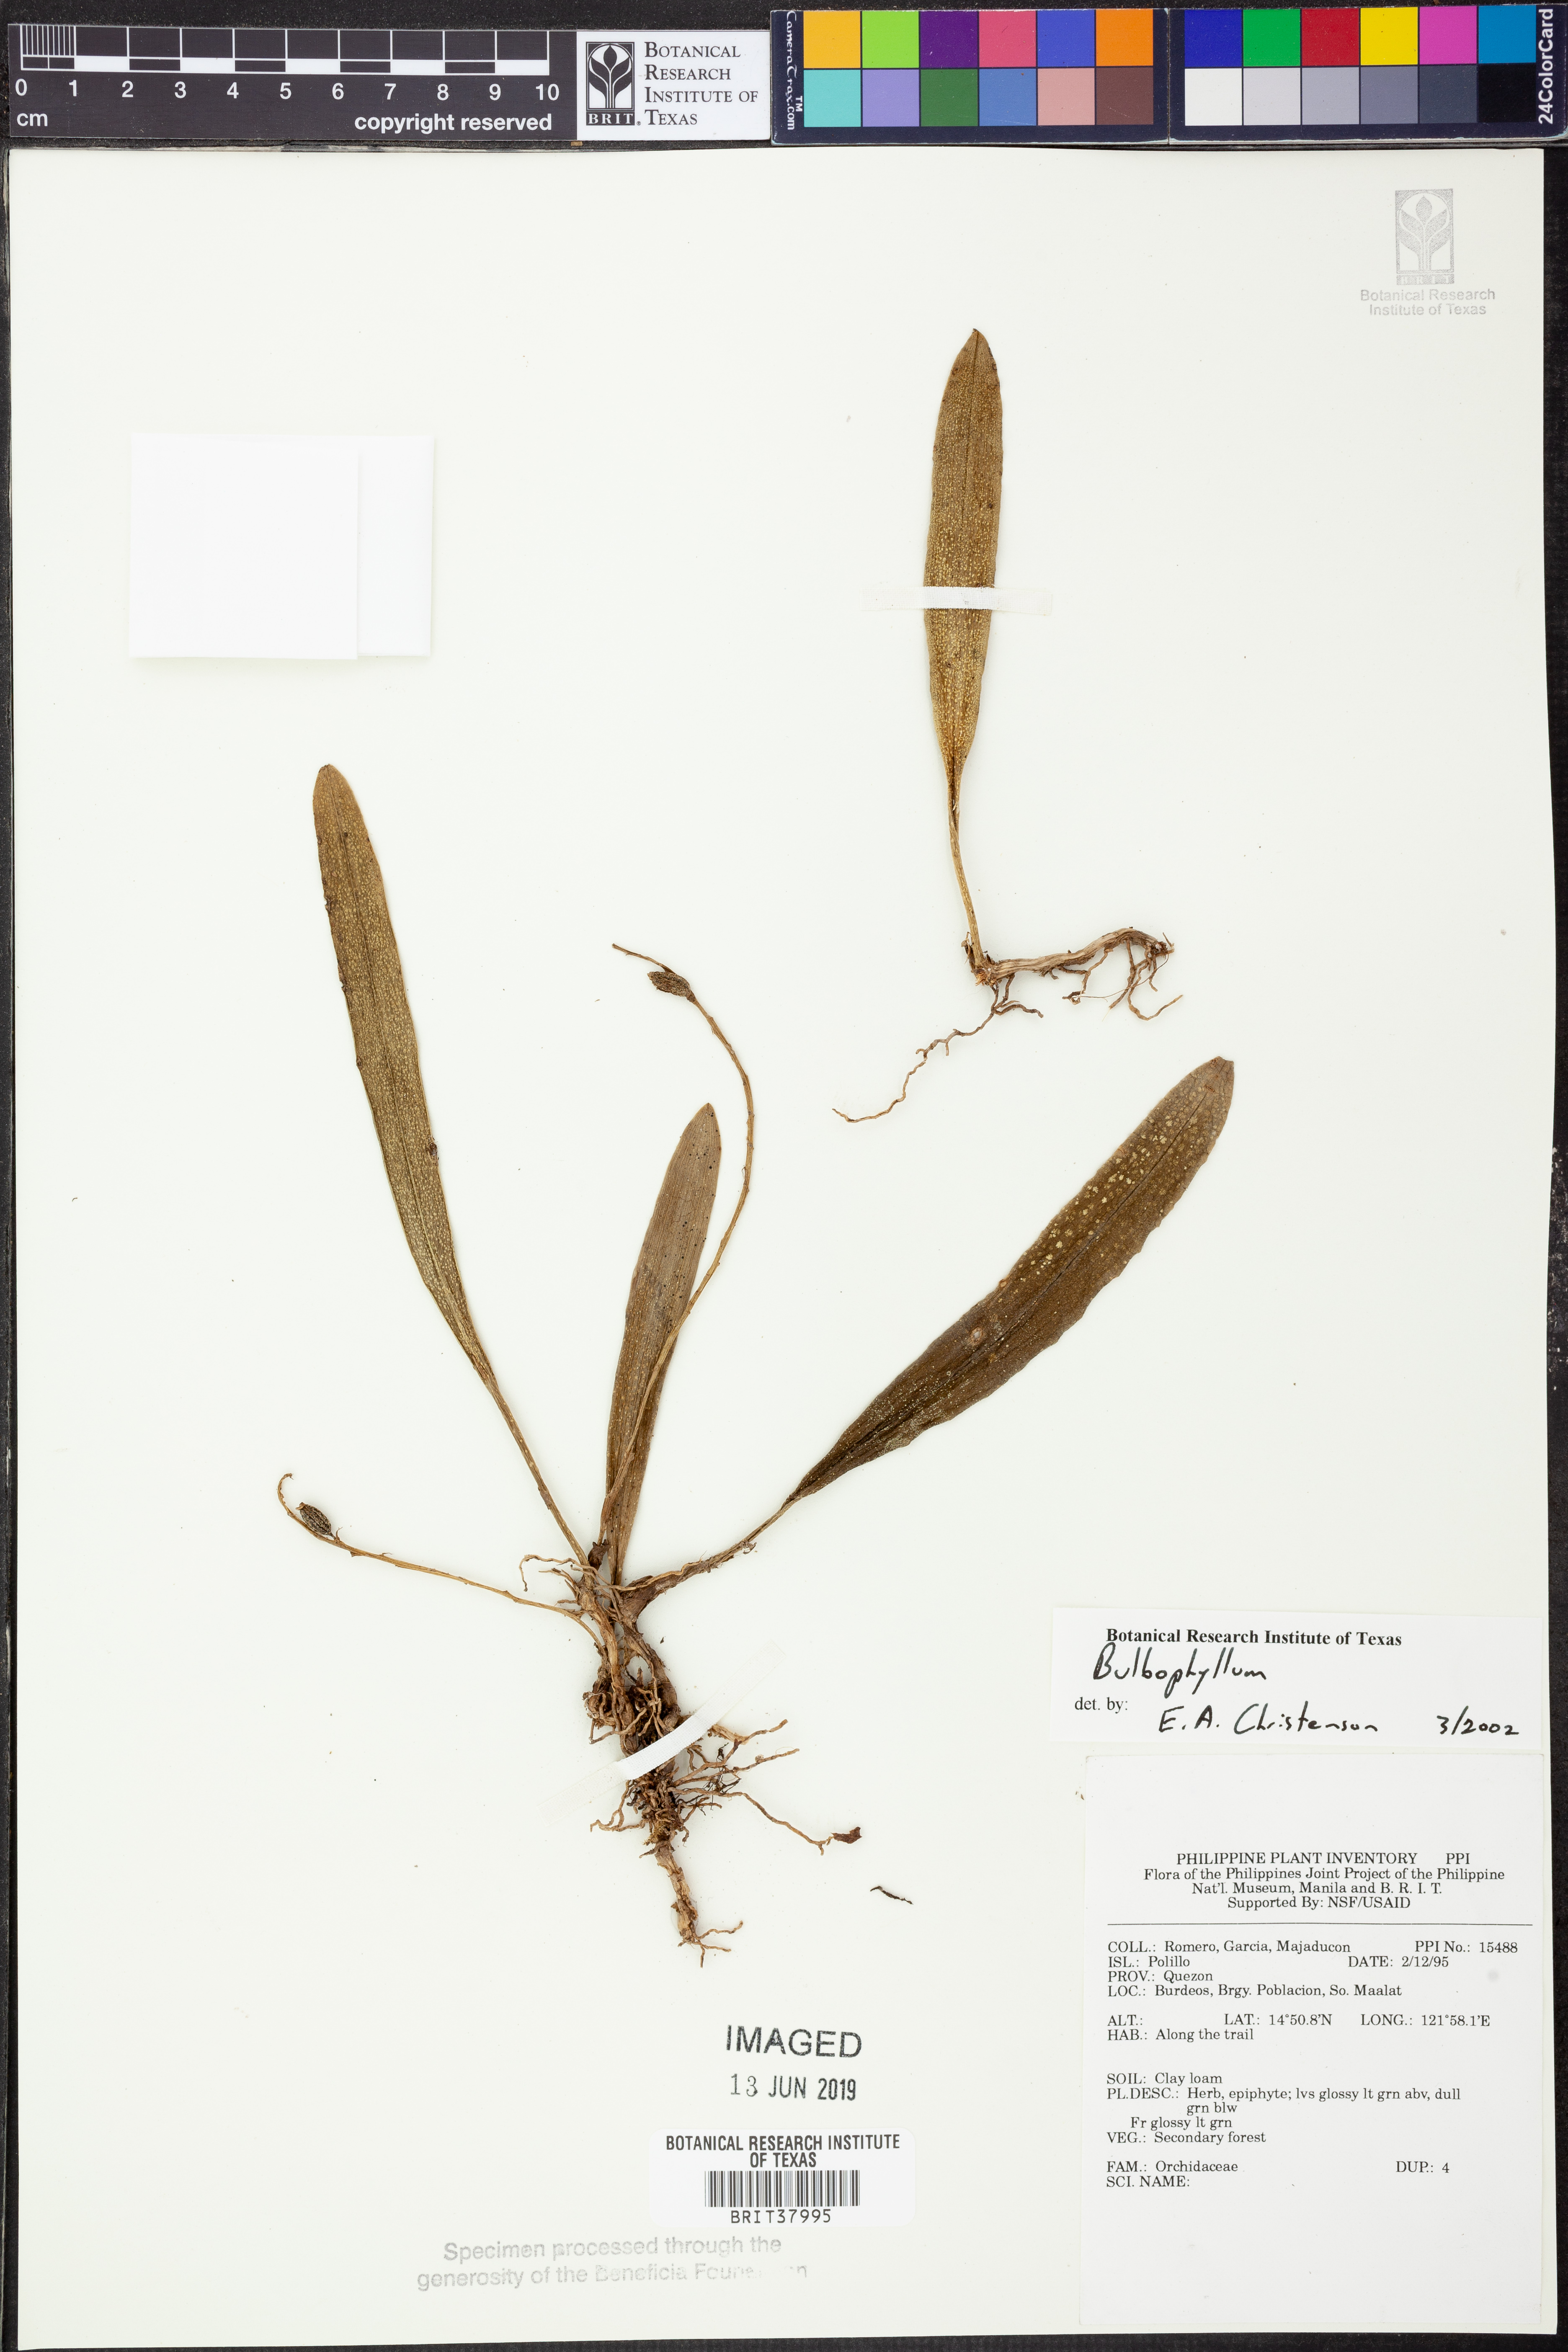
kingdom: Plantae
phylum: Tracheophyta
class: Liliopsida
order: Asparagales
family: Orchidaceae
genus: Bulbophyllum
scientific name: Bulbophyllum
